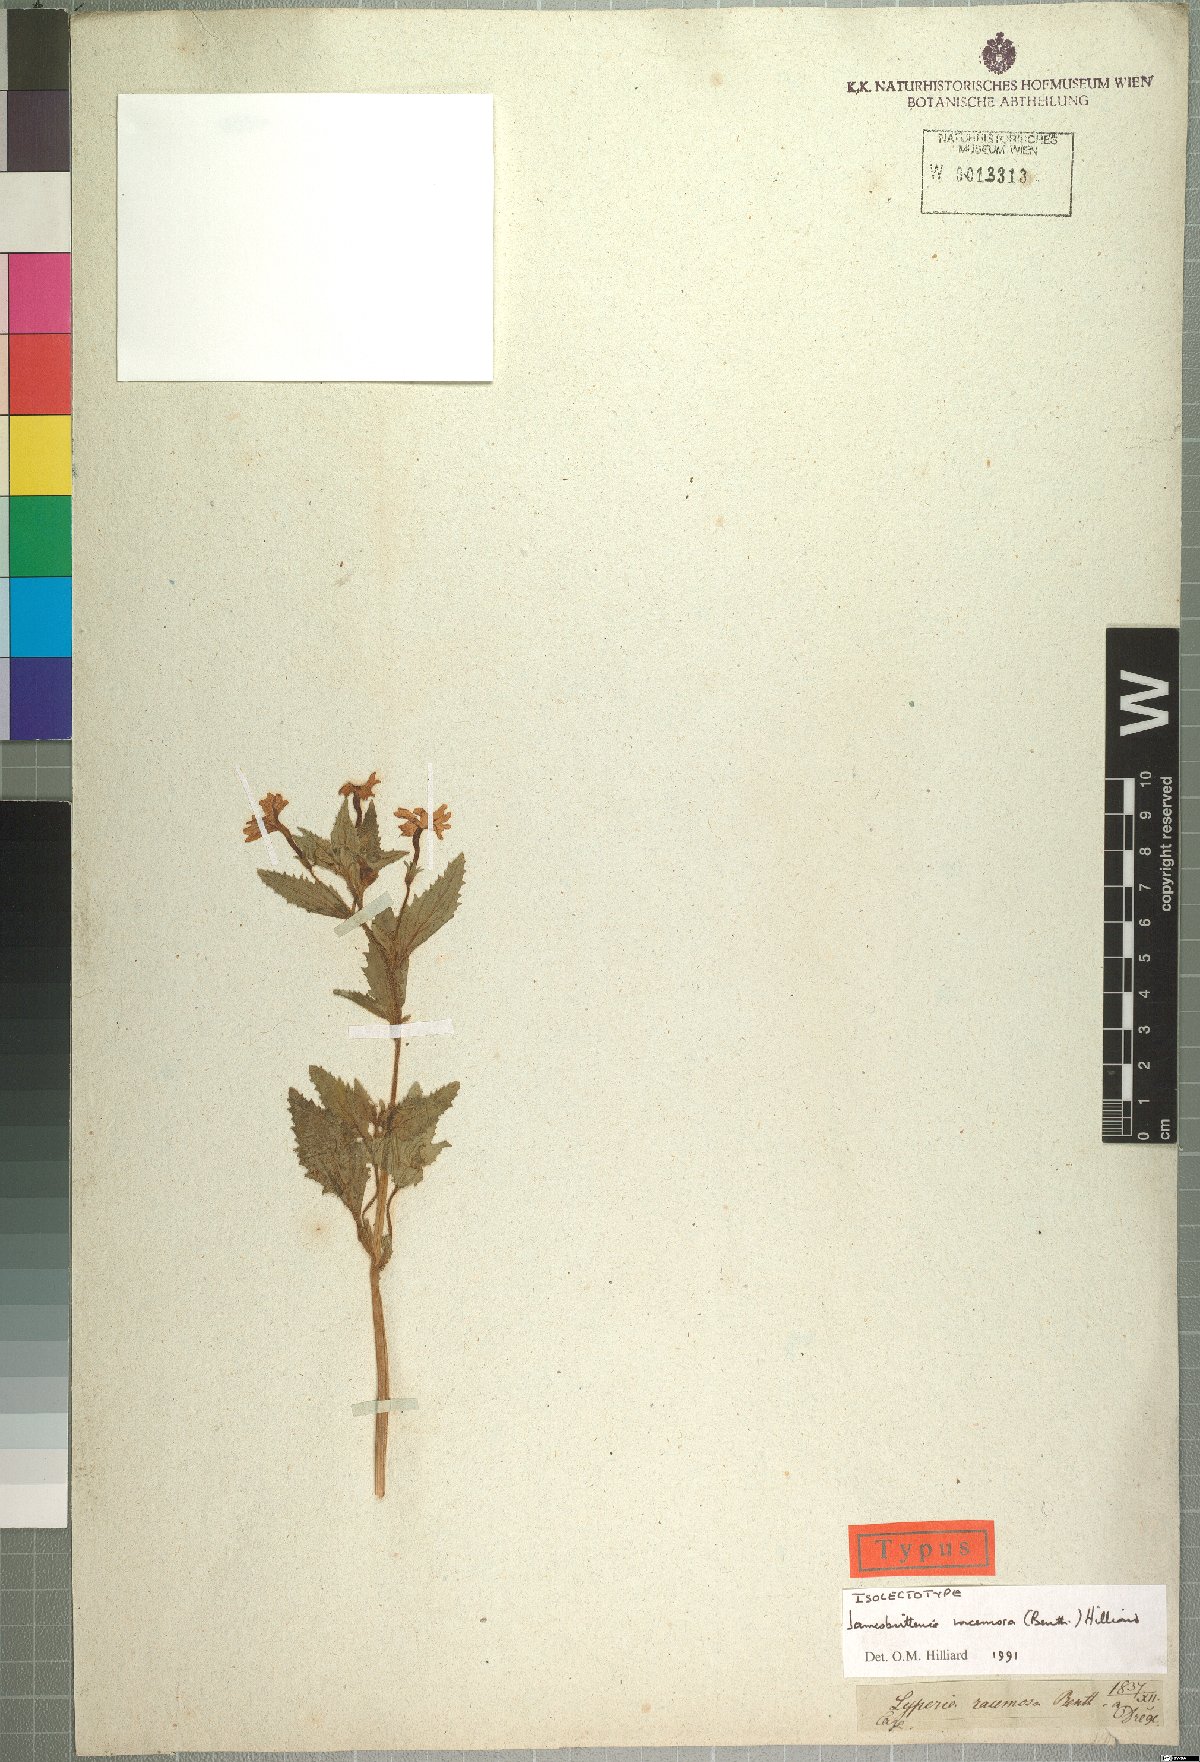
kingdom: Plantae
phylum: Tracheophyta
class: Magnoliopsida
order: Lamiales
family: Scrophulariaceae
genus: Jamesbrittenia
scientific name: Jamesbrittenia racemosa
